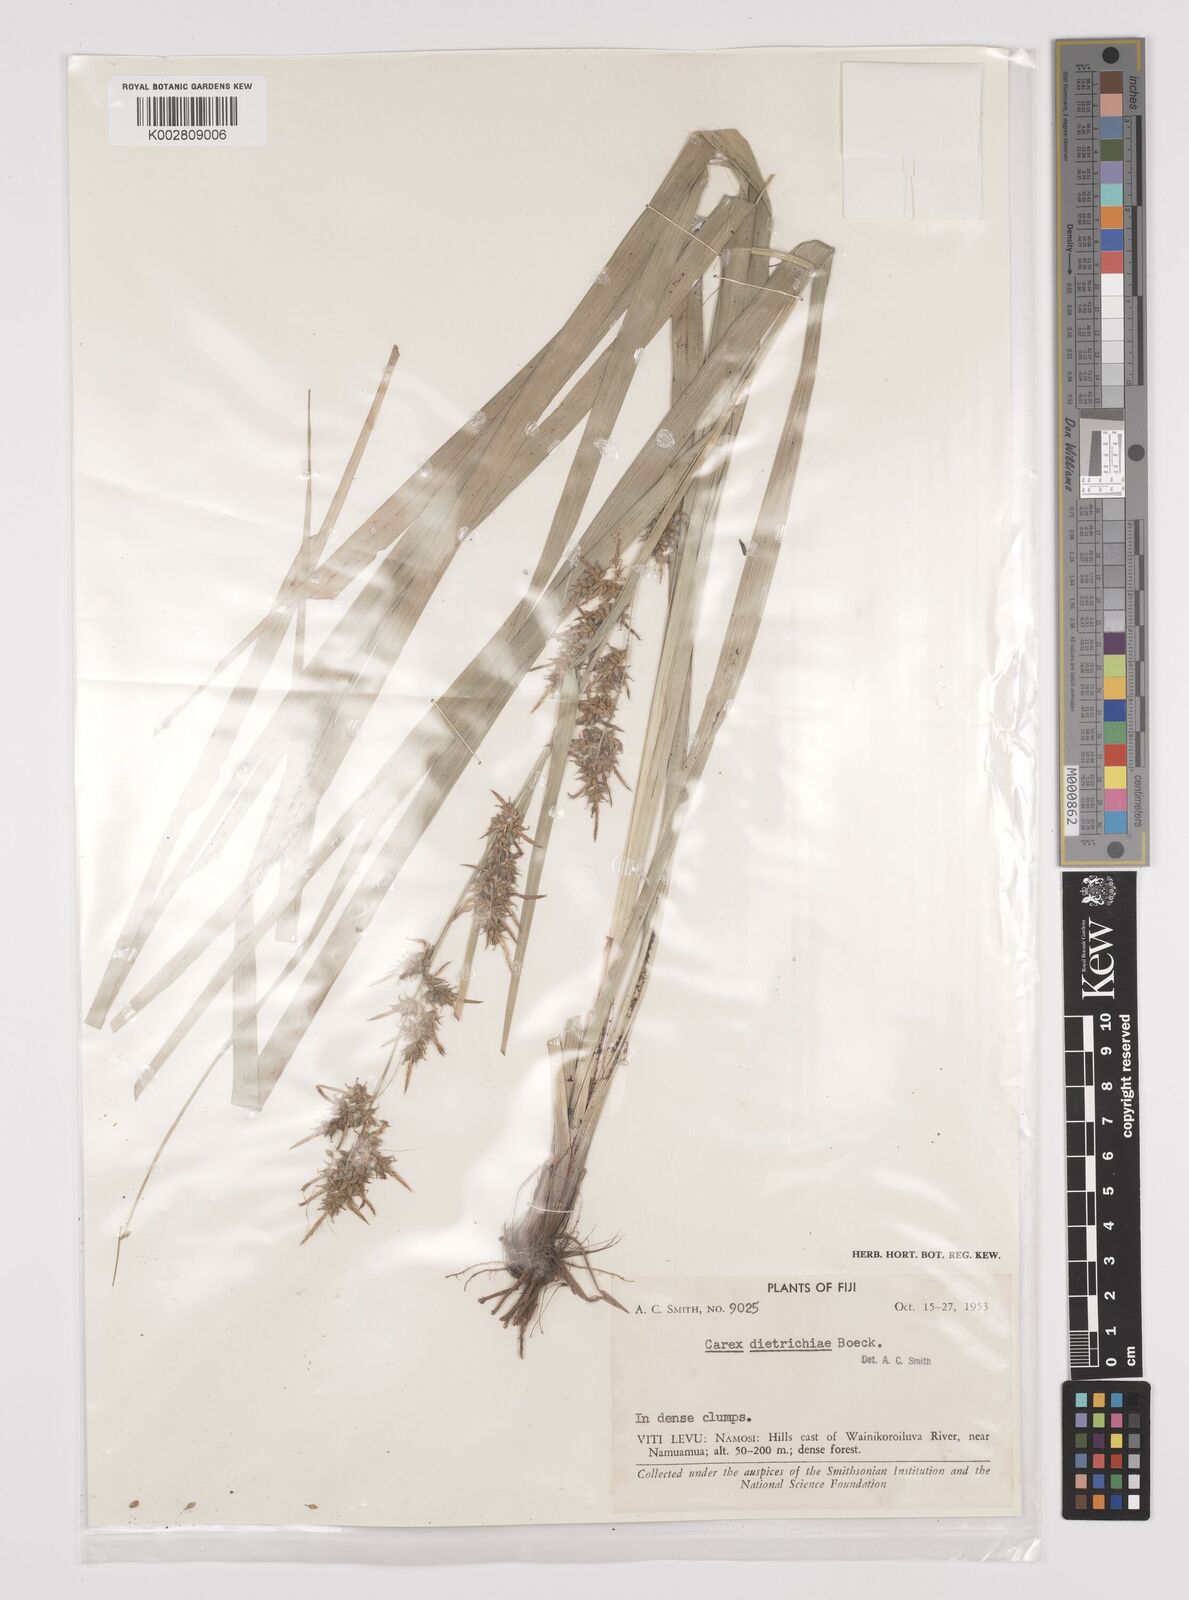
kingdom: Plantae
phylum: Tracheophyta
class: Liliopsida
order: Poales
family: Cyperaceae
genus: Carex
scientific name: Carex indica
